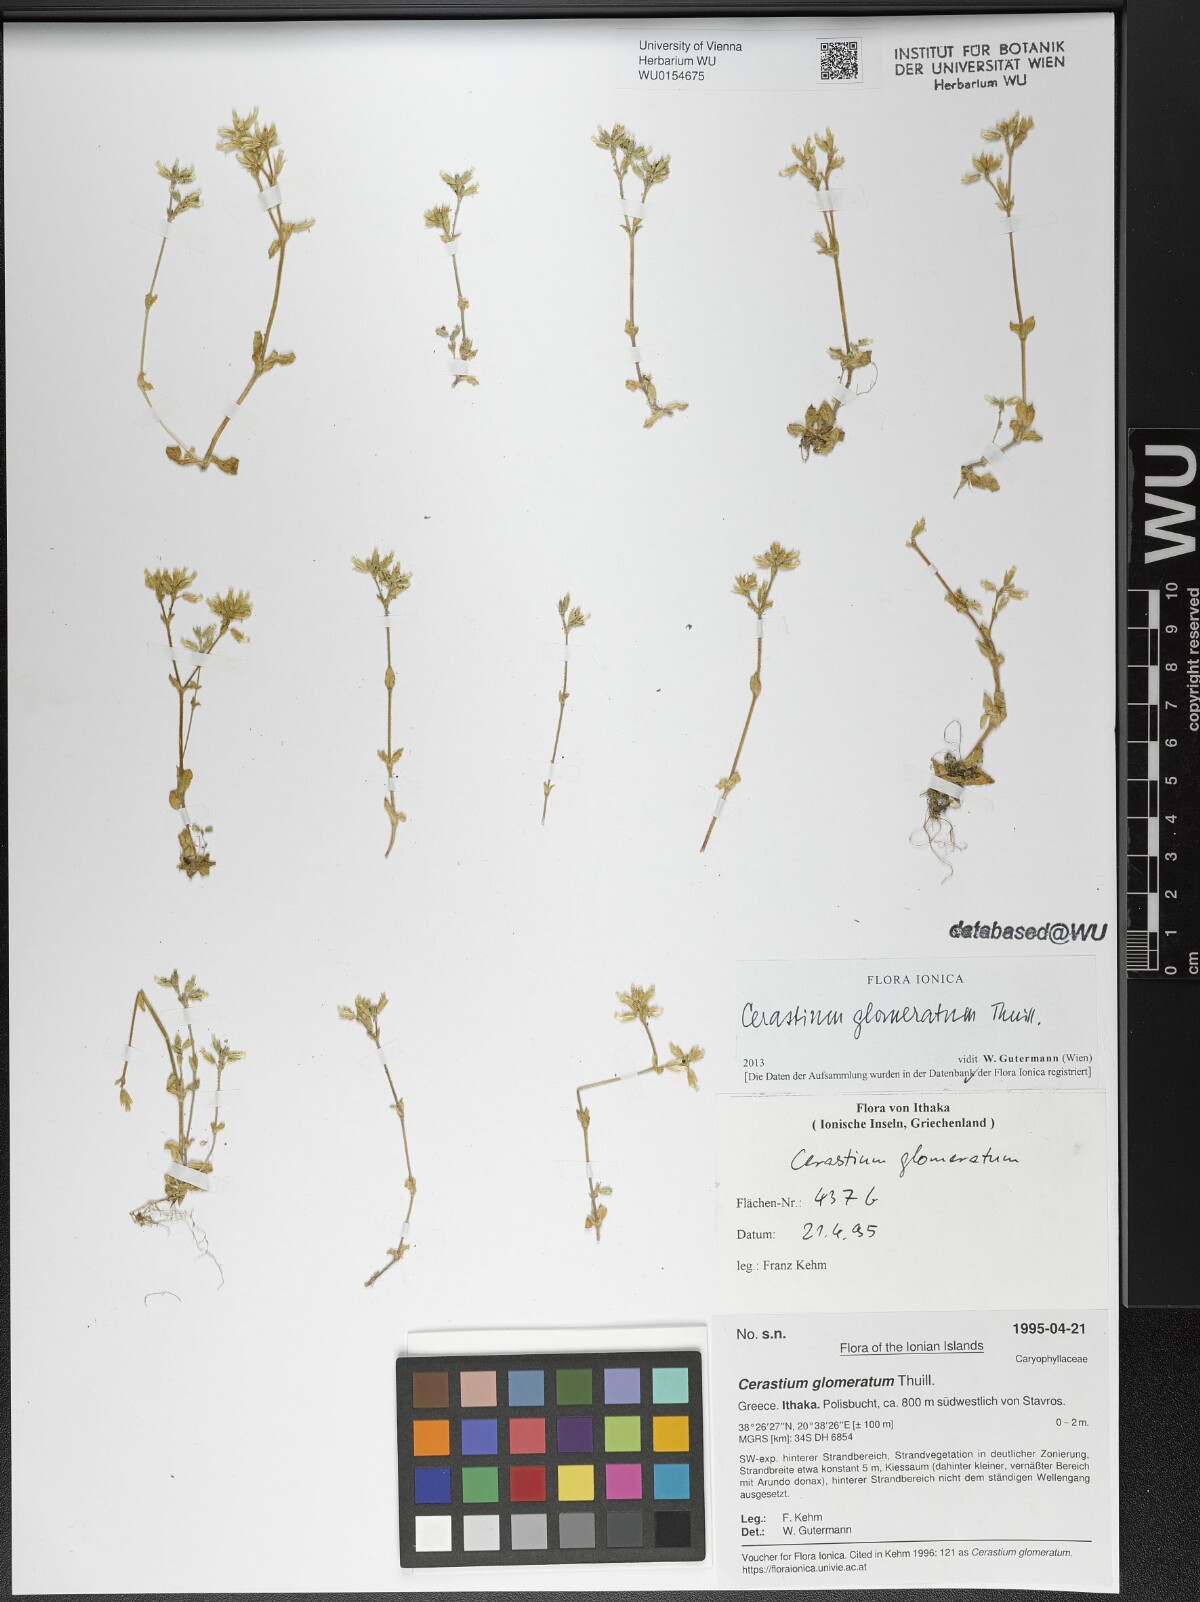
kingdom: Plantae
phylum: Tracheophyta
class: Magnoliopsida
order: Caryophyllales
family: Caryophyllaceae
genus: Cerastium
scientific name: Cerastium glomeratum
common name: Sticky chickweed
